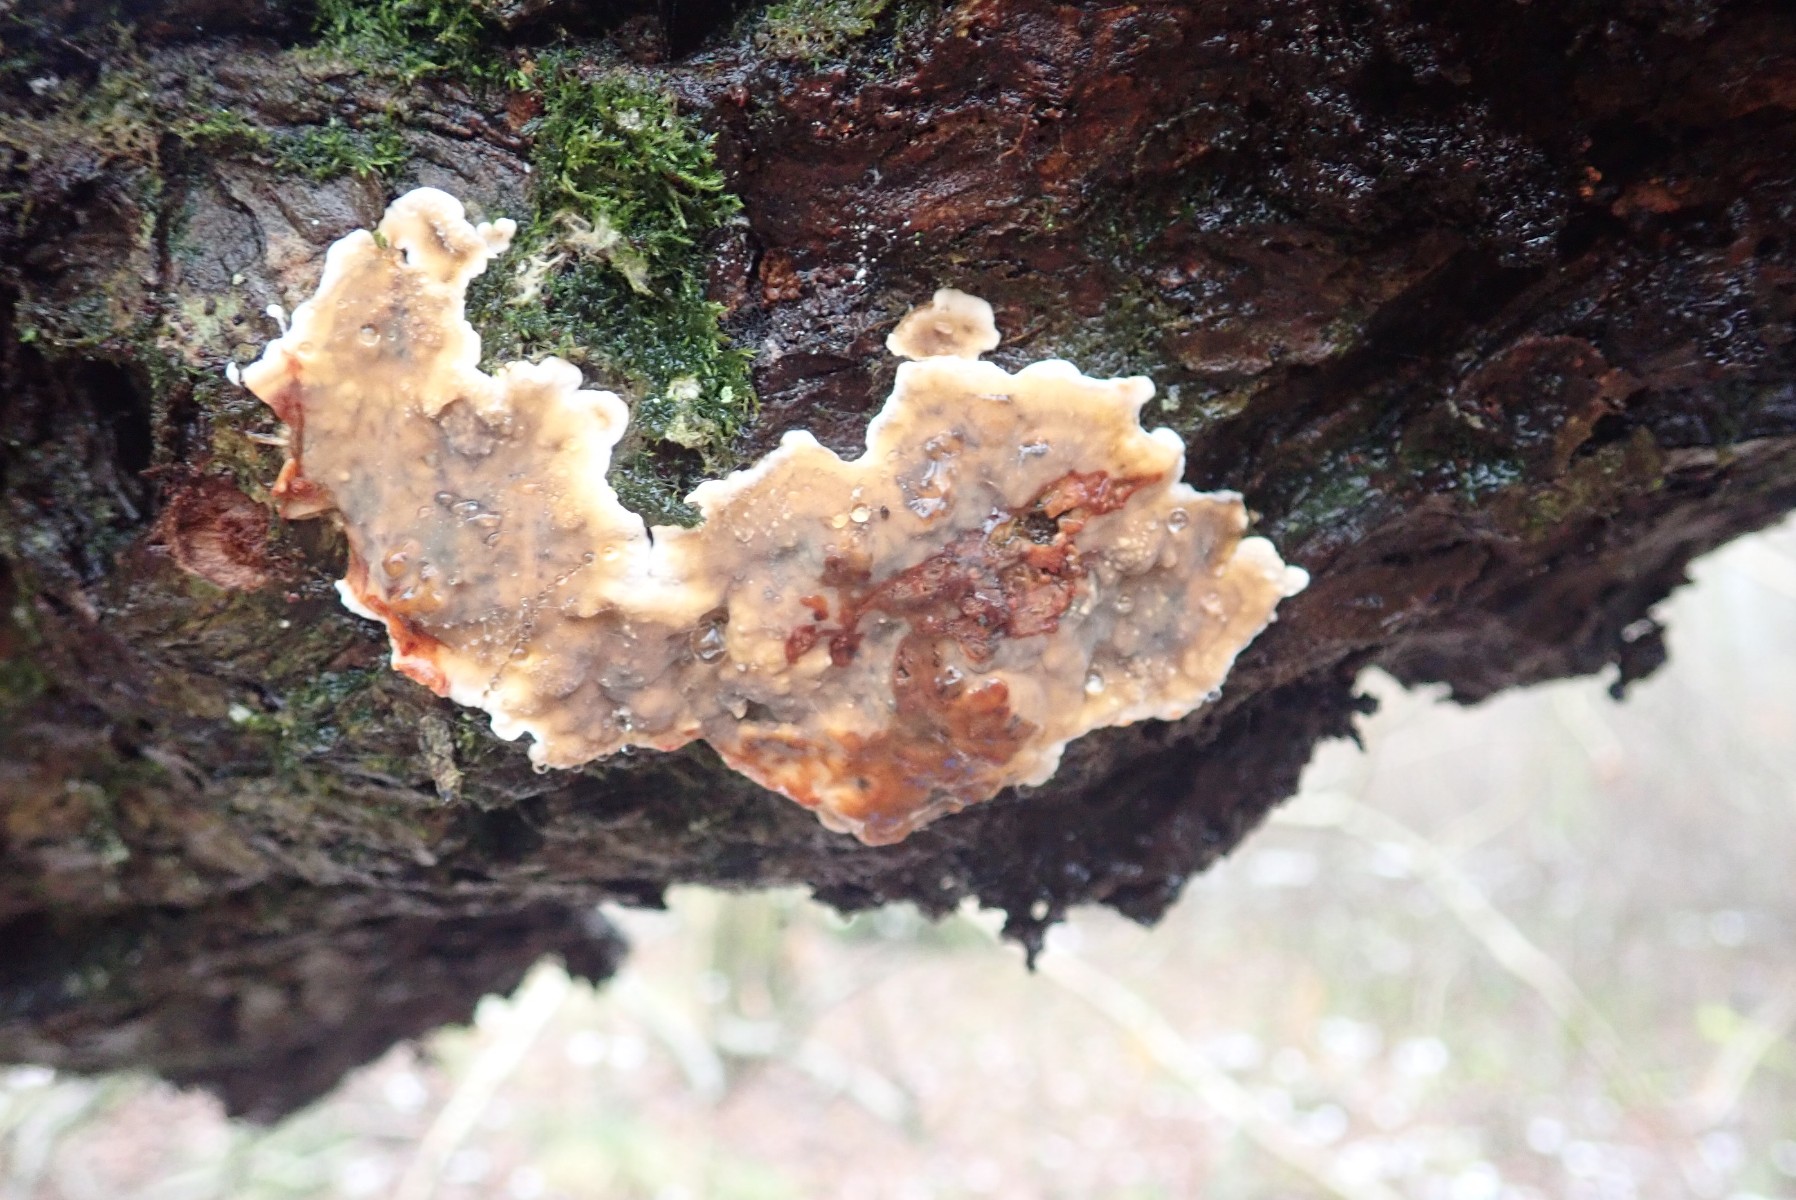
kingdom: Fungi
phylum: Basidiomycota
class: Agaricomycetes
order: Russulales
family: Stereaceae
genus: Stereum
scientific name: Stereum rugosum
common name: rynket lædersvamp
